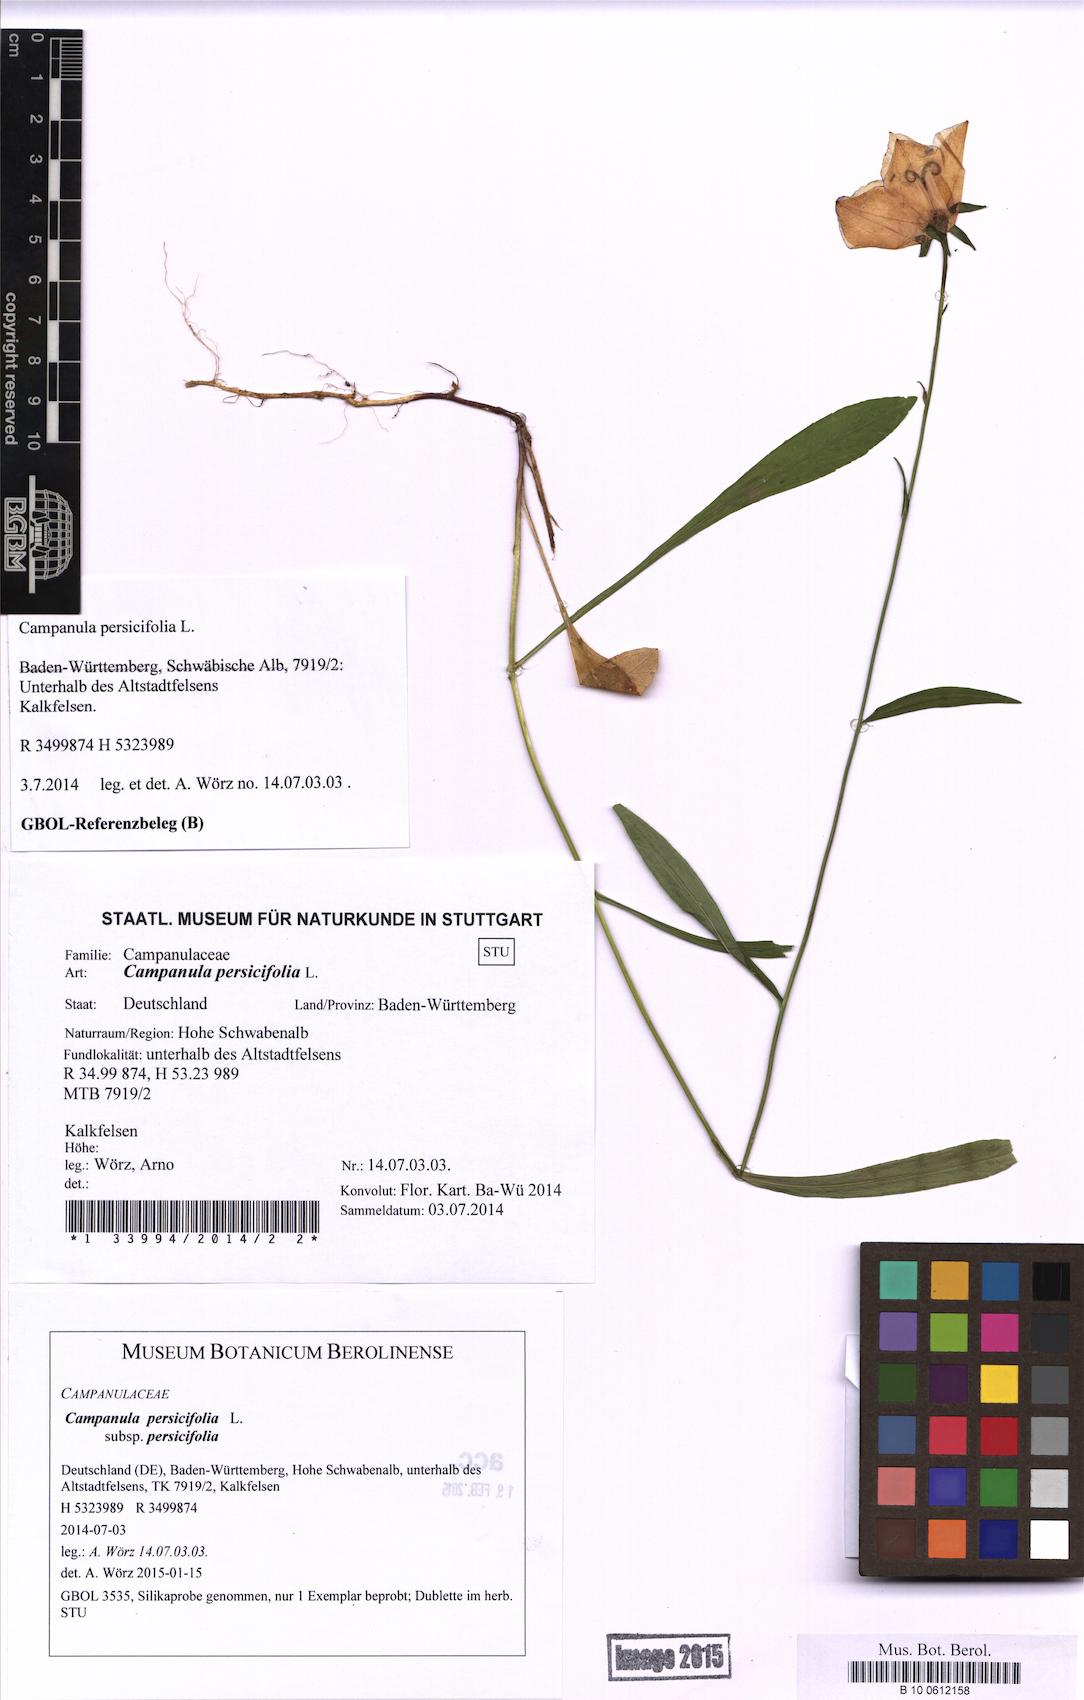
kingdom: Plantae
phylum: Tracheophyta
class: Magnoliopsida
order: Asterales
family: Campanulaceae
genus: Campanula
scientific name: Campanula persicifolia
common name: Peach-leaved bellflower
